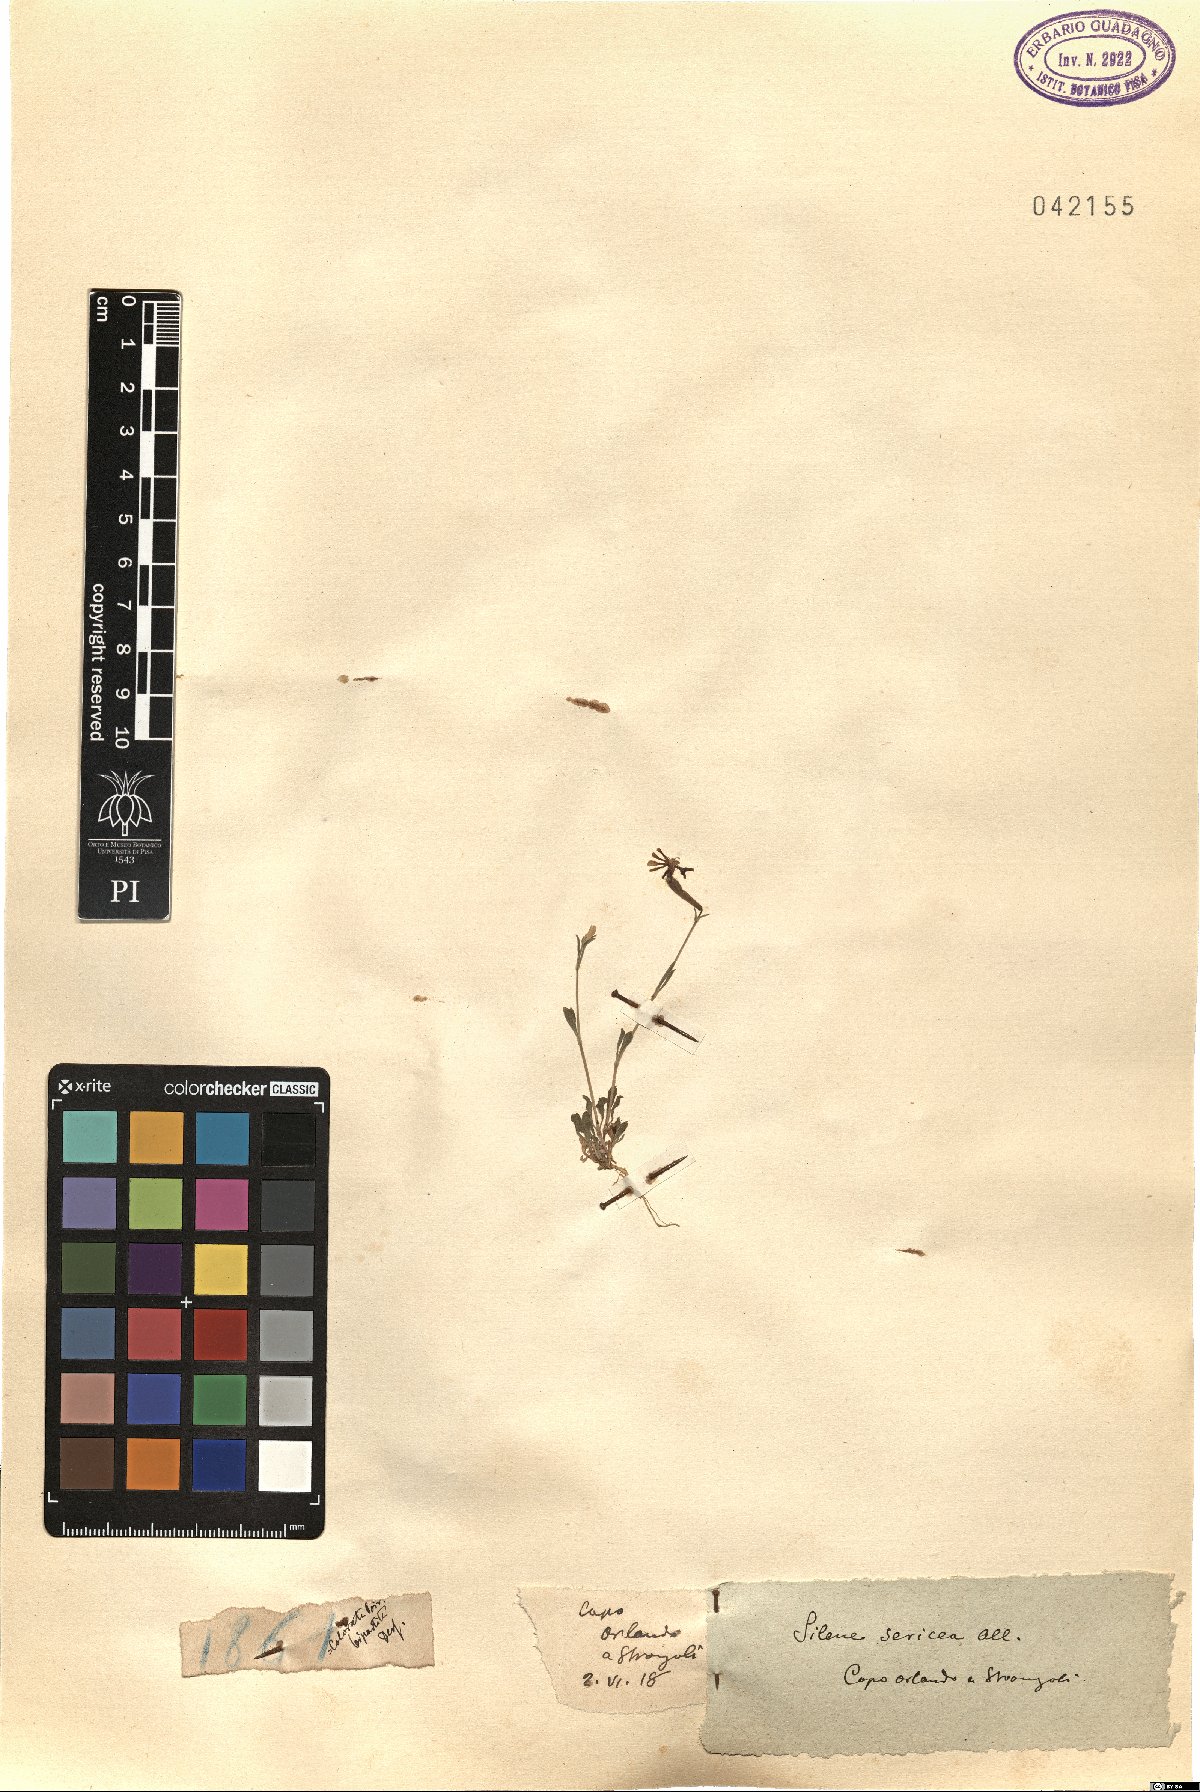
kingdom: Plantae
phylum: Tracheophyta
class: Magnoliopsida
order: Caryophyllales
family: Caryophyllaceae
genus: Silene
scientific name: Silene sericea
